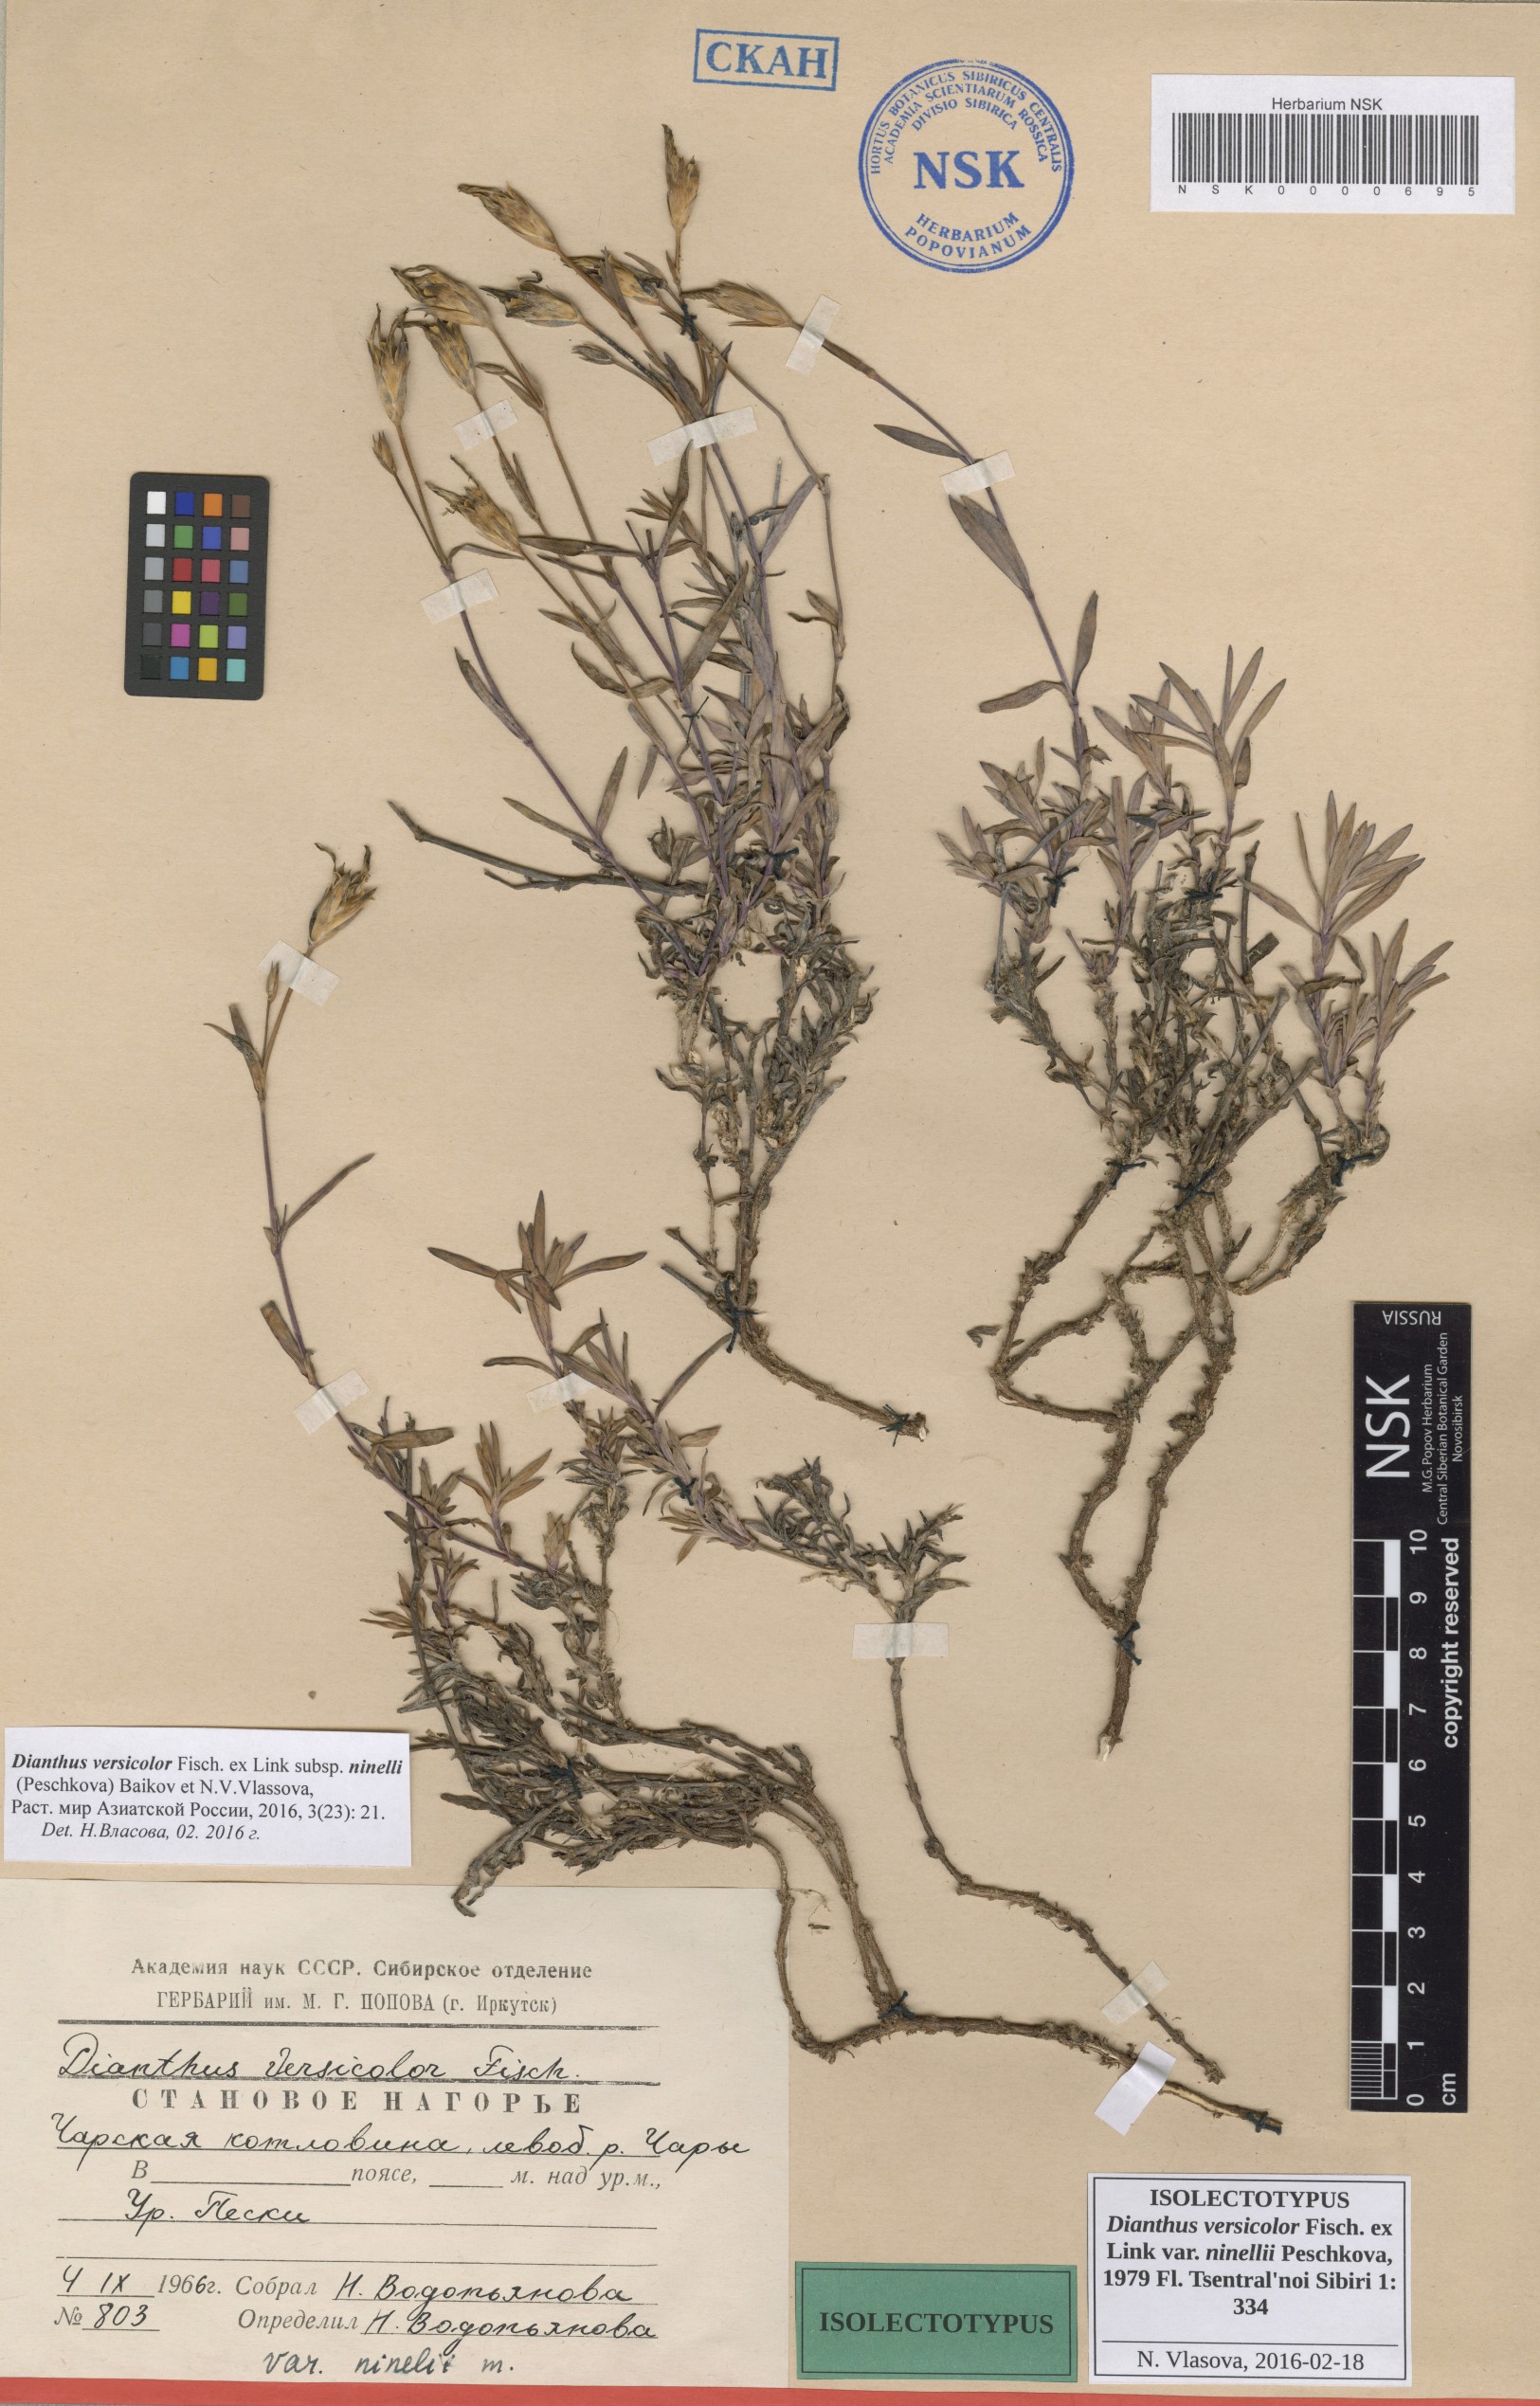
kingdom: Plantae
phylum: Tracheophyta
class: Magnoliopsida
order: Caryophyllales
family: Caryophyllaceae
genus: Dianthus
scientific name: Dianthus chinensis
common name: Rainbow pink
